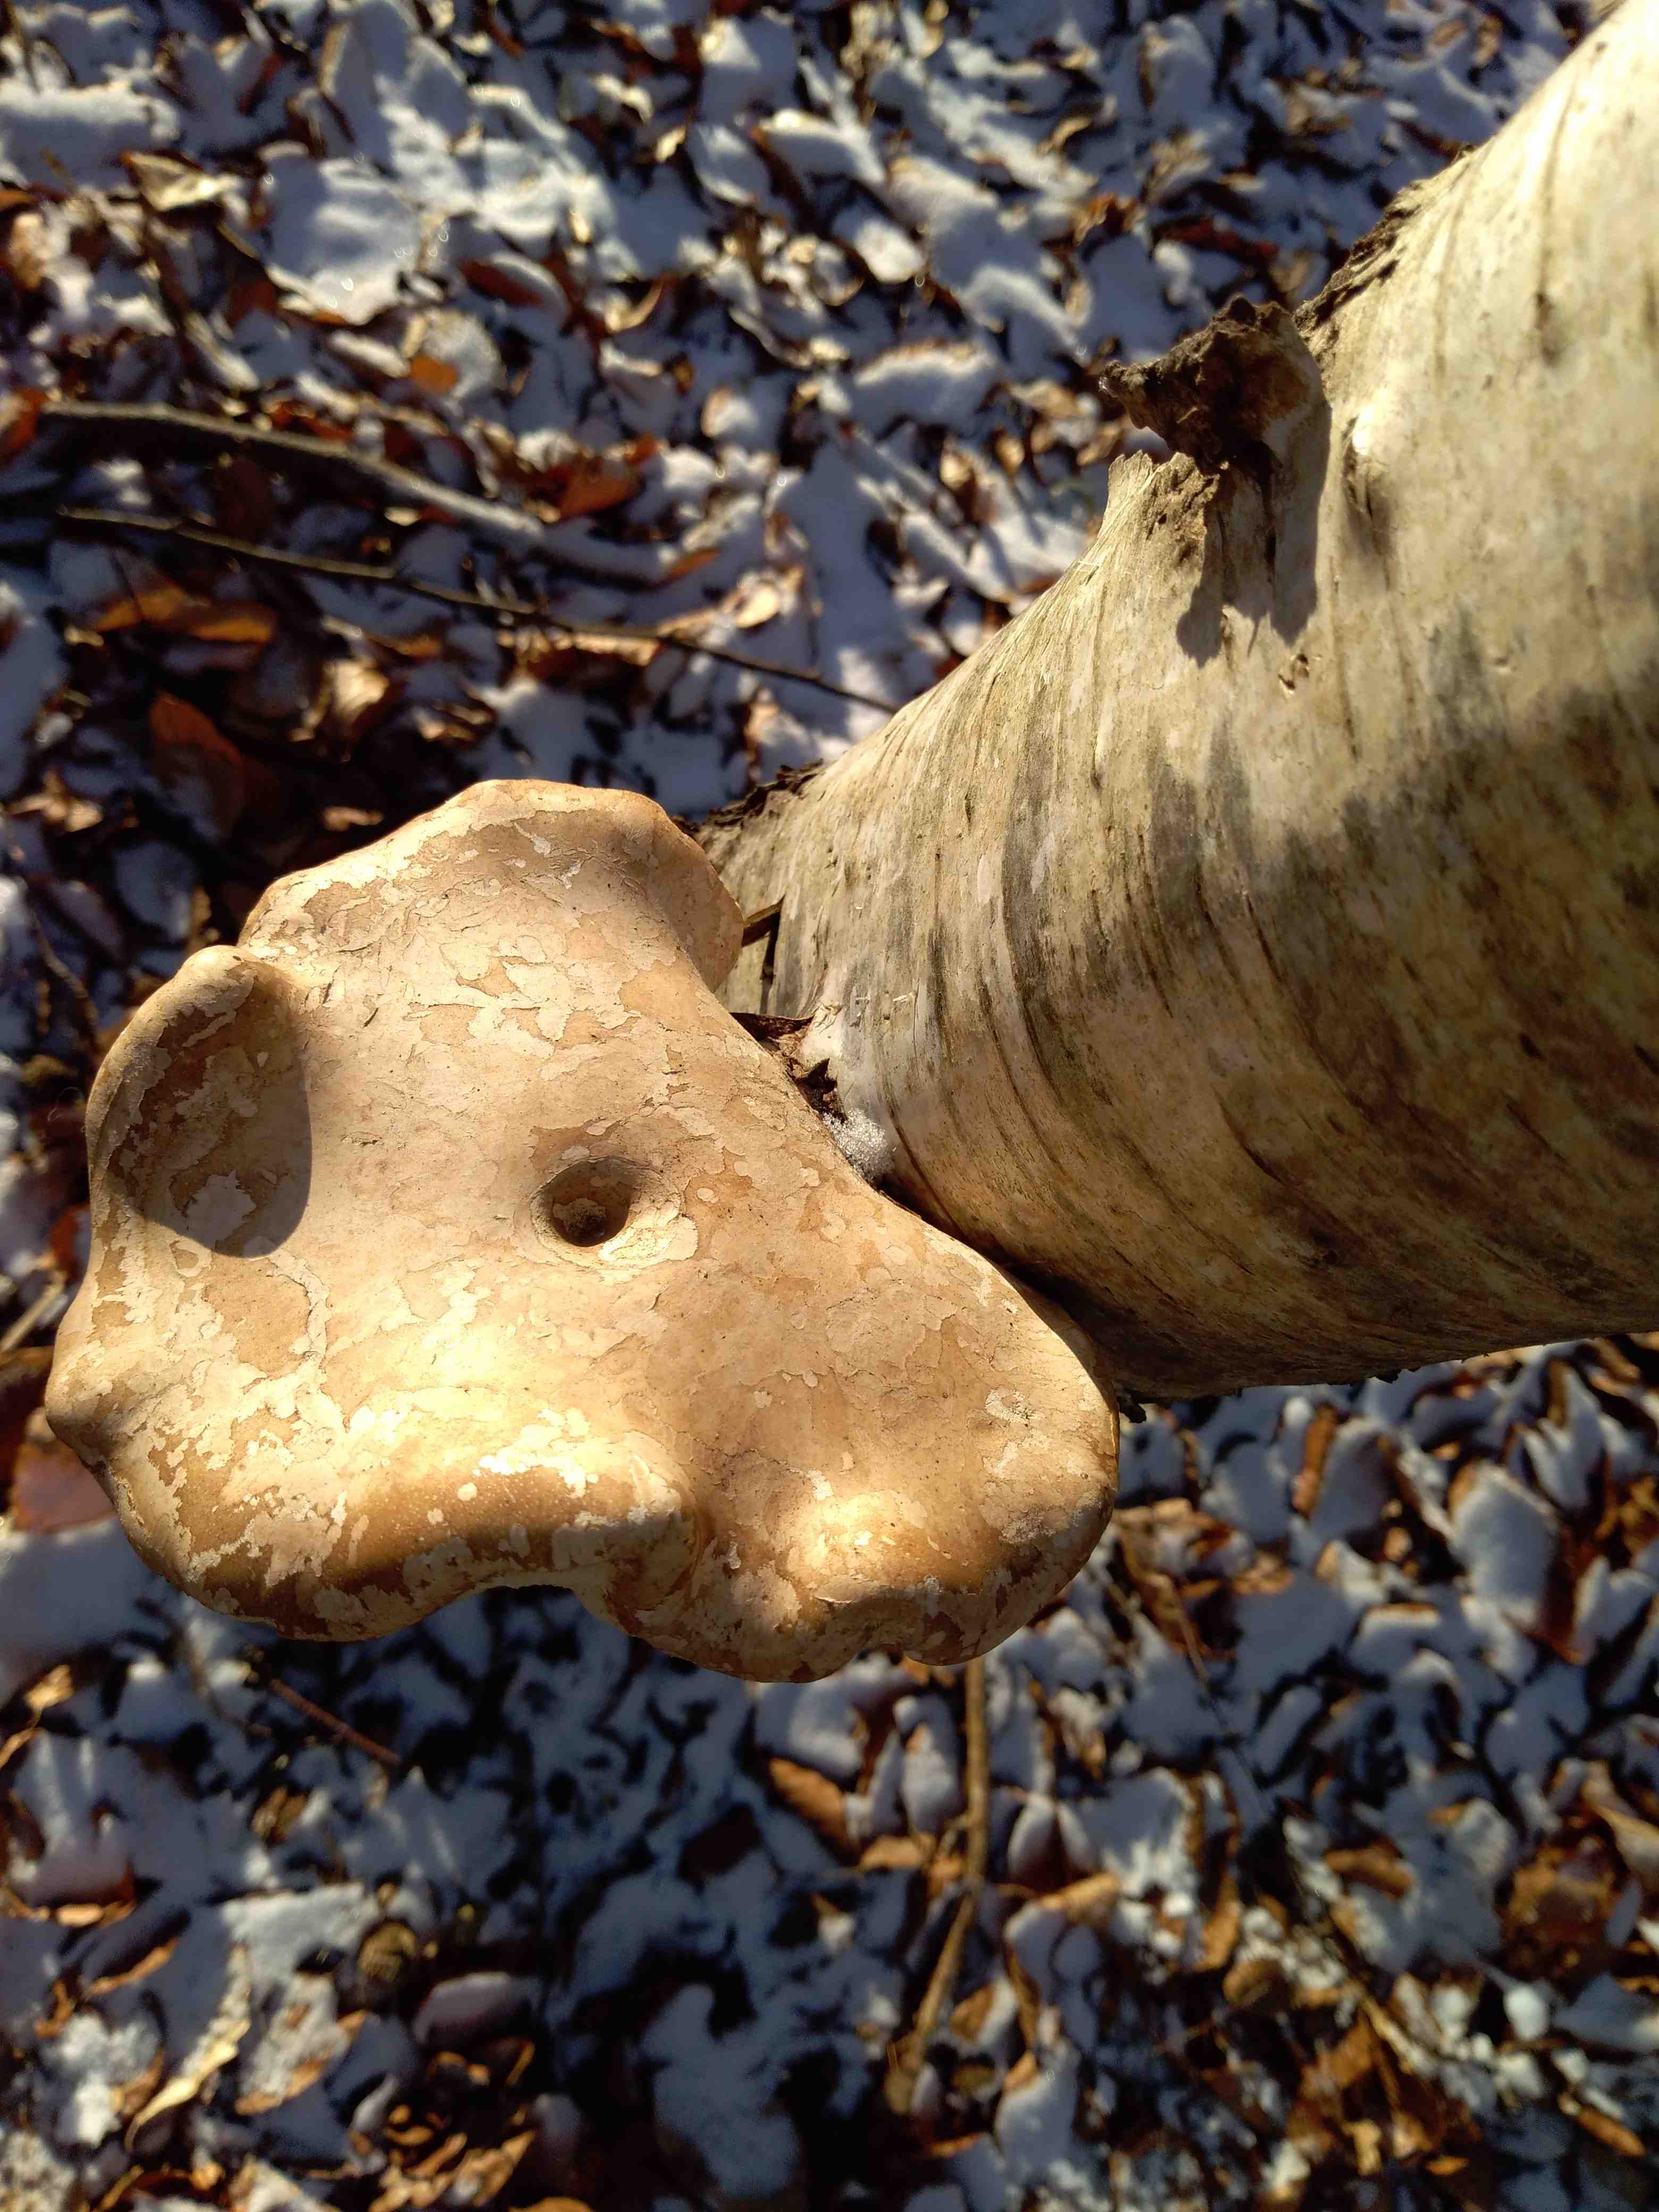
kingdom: Fungi
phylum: Basidiomycota
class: Agaricomycetes
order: Polyporales
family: Fomitopsidaceae
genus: Fomitopsis
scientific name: Fomitopsis betulina
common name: birkeporesvamp
